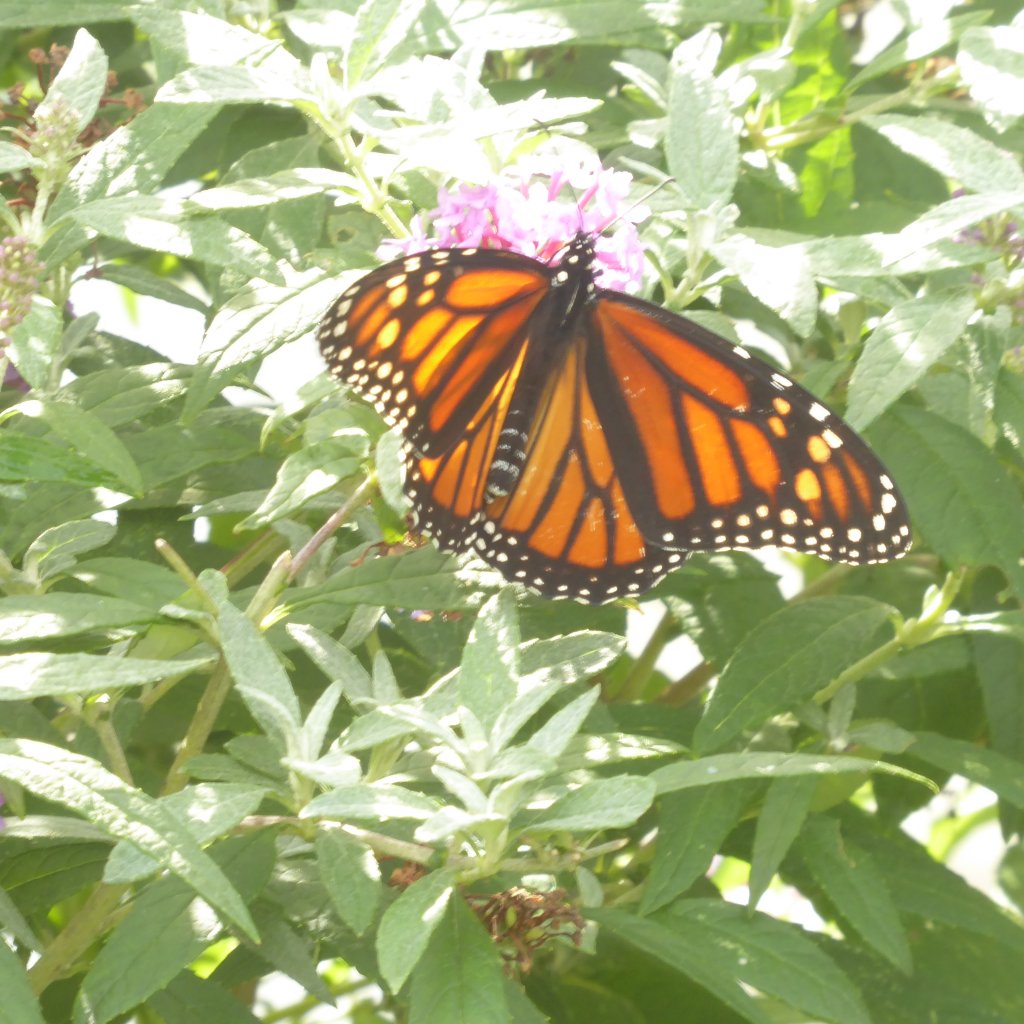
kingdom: Animalia
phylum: Arthropoda
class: Insecta
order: Lepidoptera
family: Nymphalidae
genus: Danaus
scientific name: Danaus plexippus
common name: Monarch
